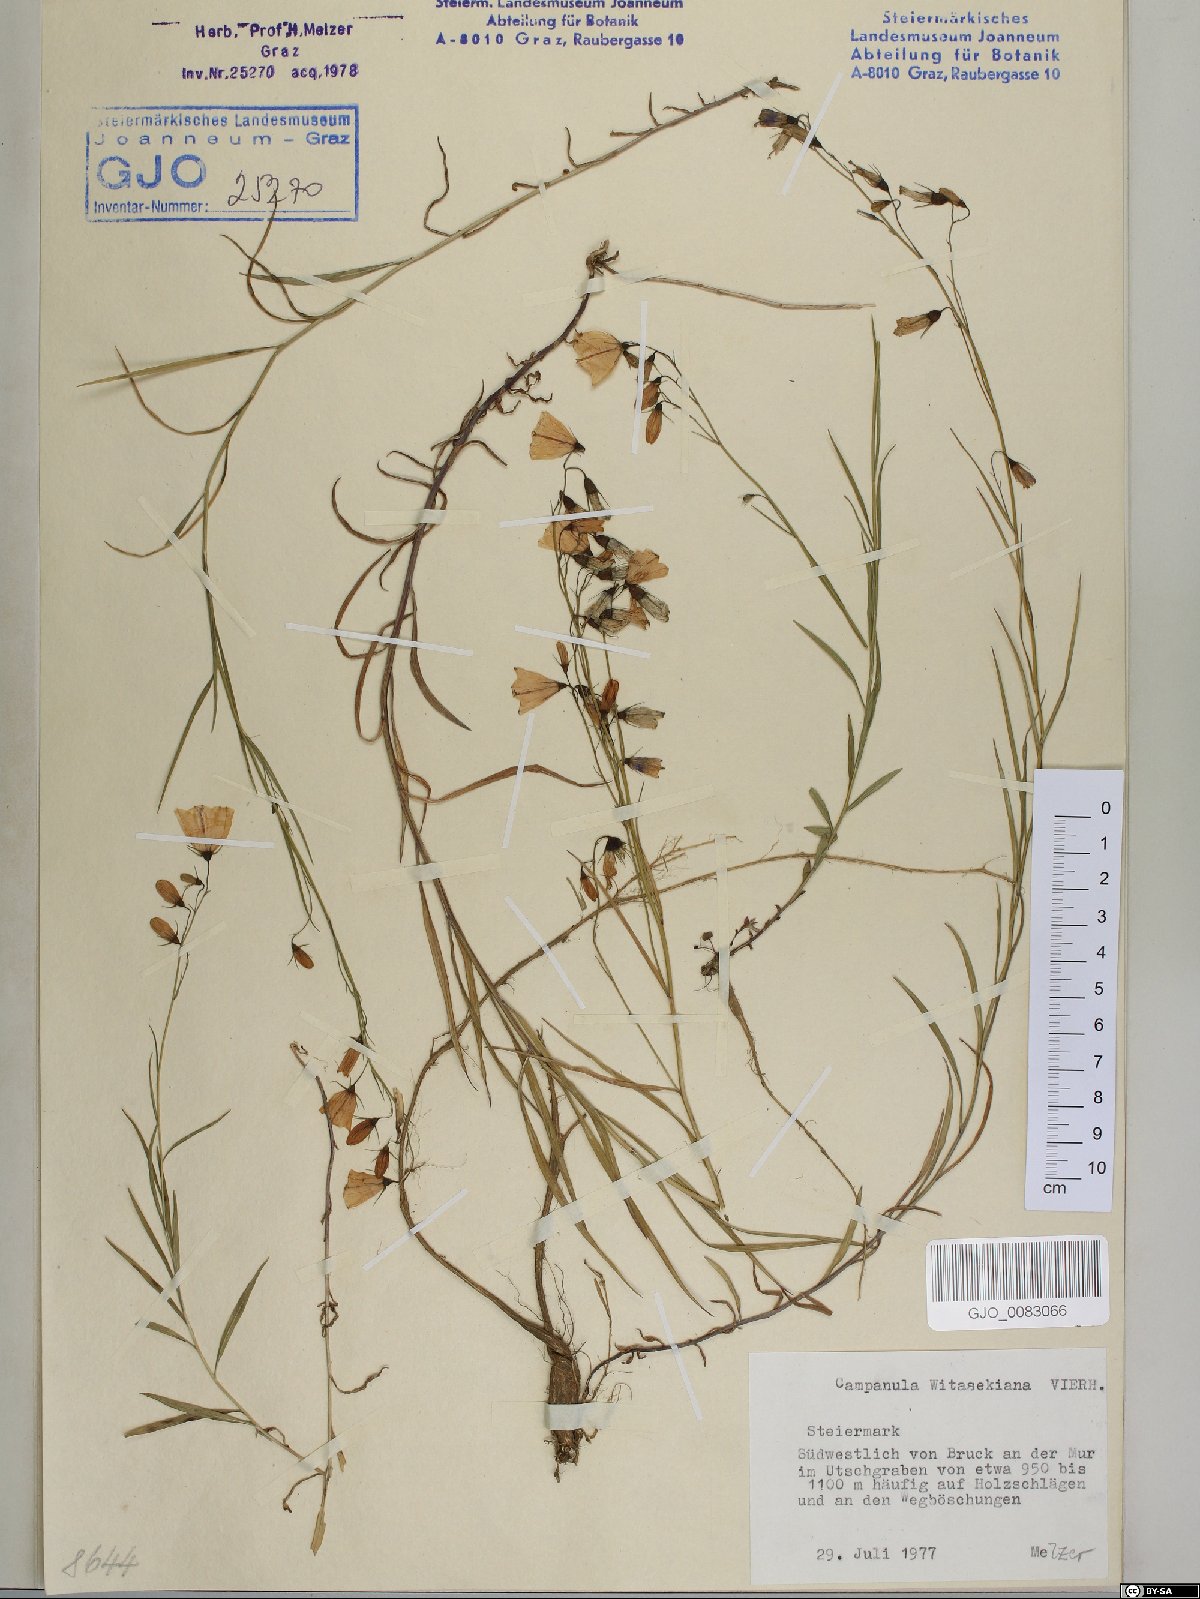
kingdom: Plantae
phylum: Tracheophyta
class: Magnoliopsida
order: Asterales
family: Campanulaceae
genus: Campanula
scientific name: Campanula witasekiana
